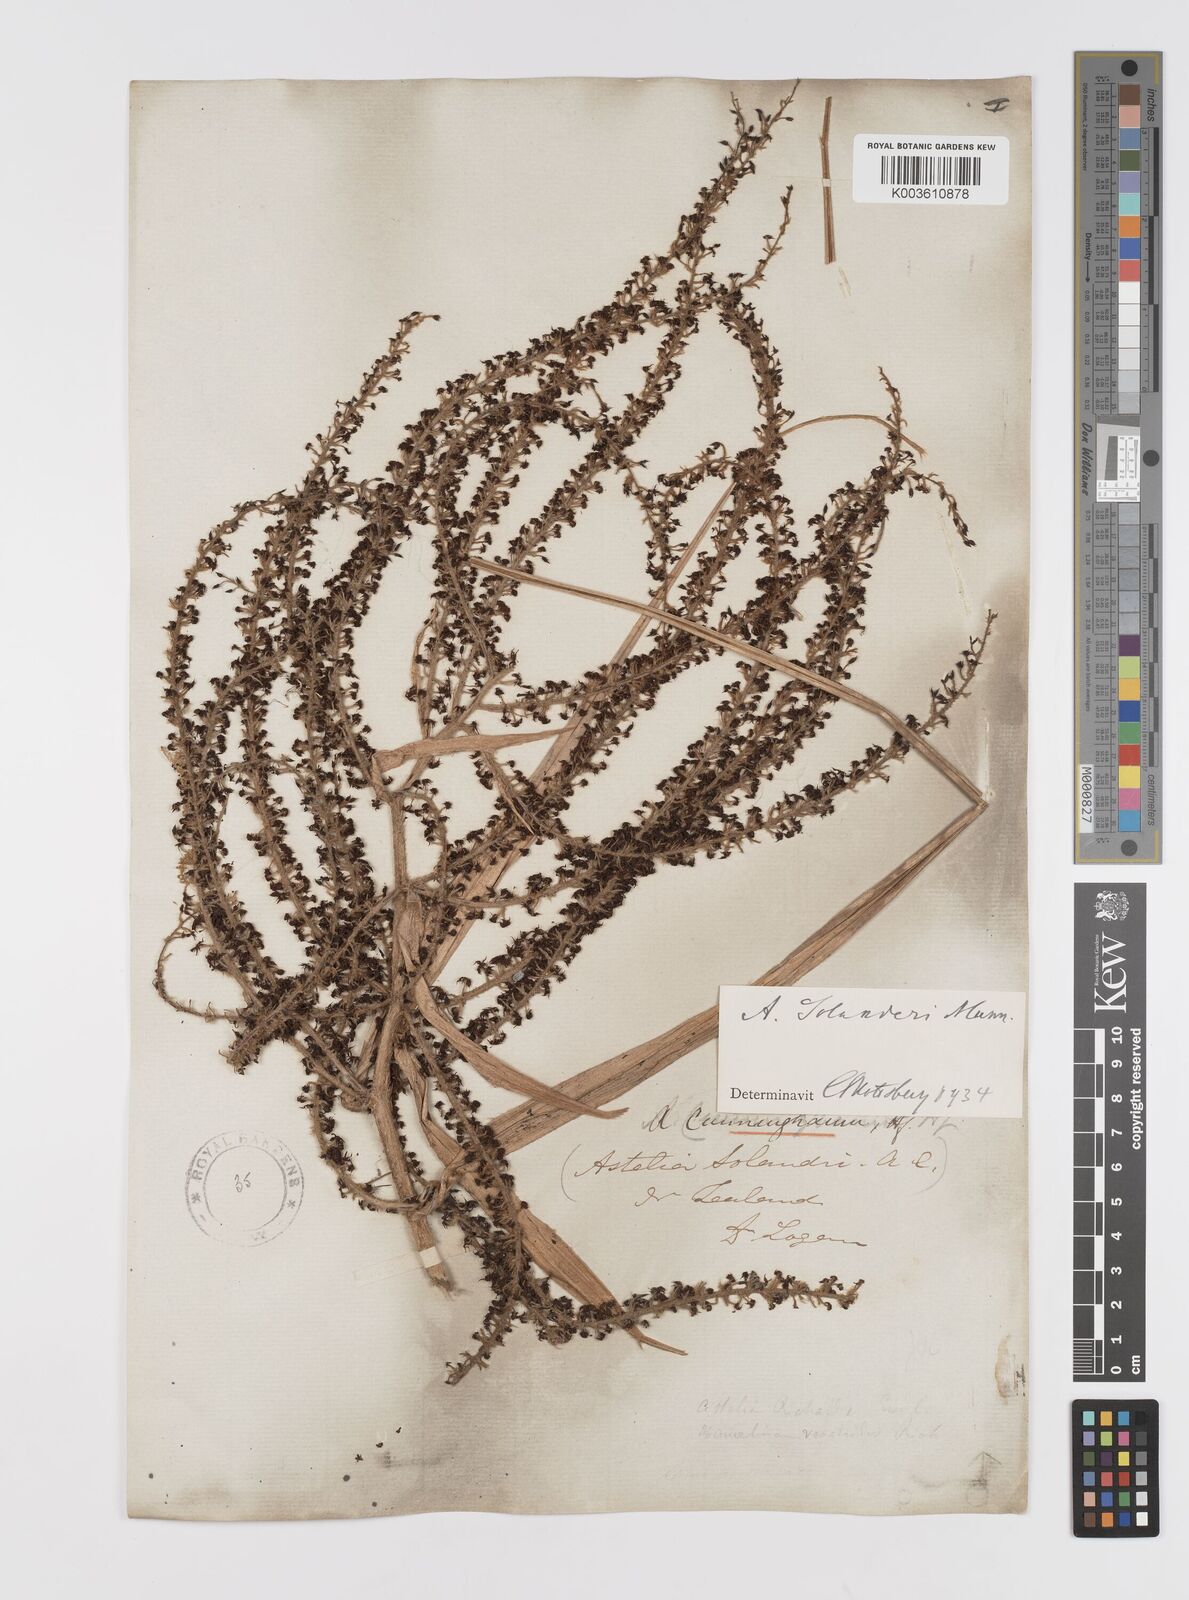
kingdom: Plantae
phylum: Tracheophyta
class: Liliopsida
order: Asparagales
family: Asteliaceae
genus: Astelia
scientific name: Astelia solandri
